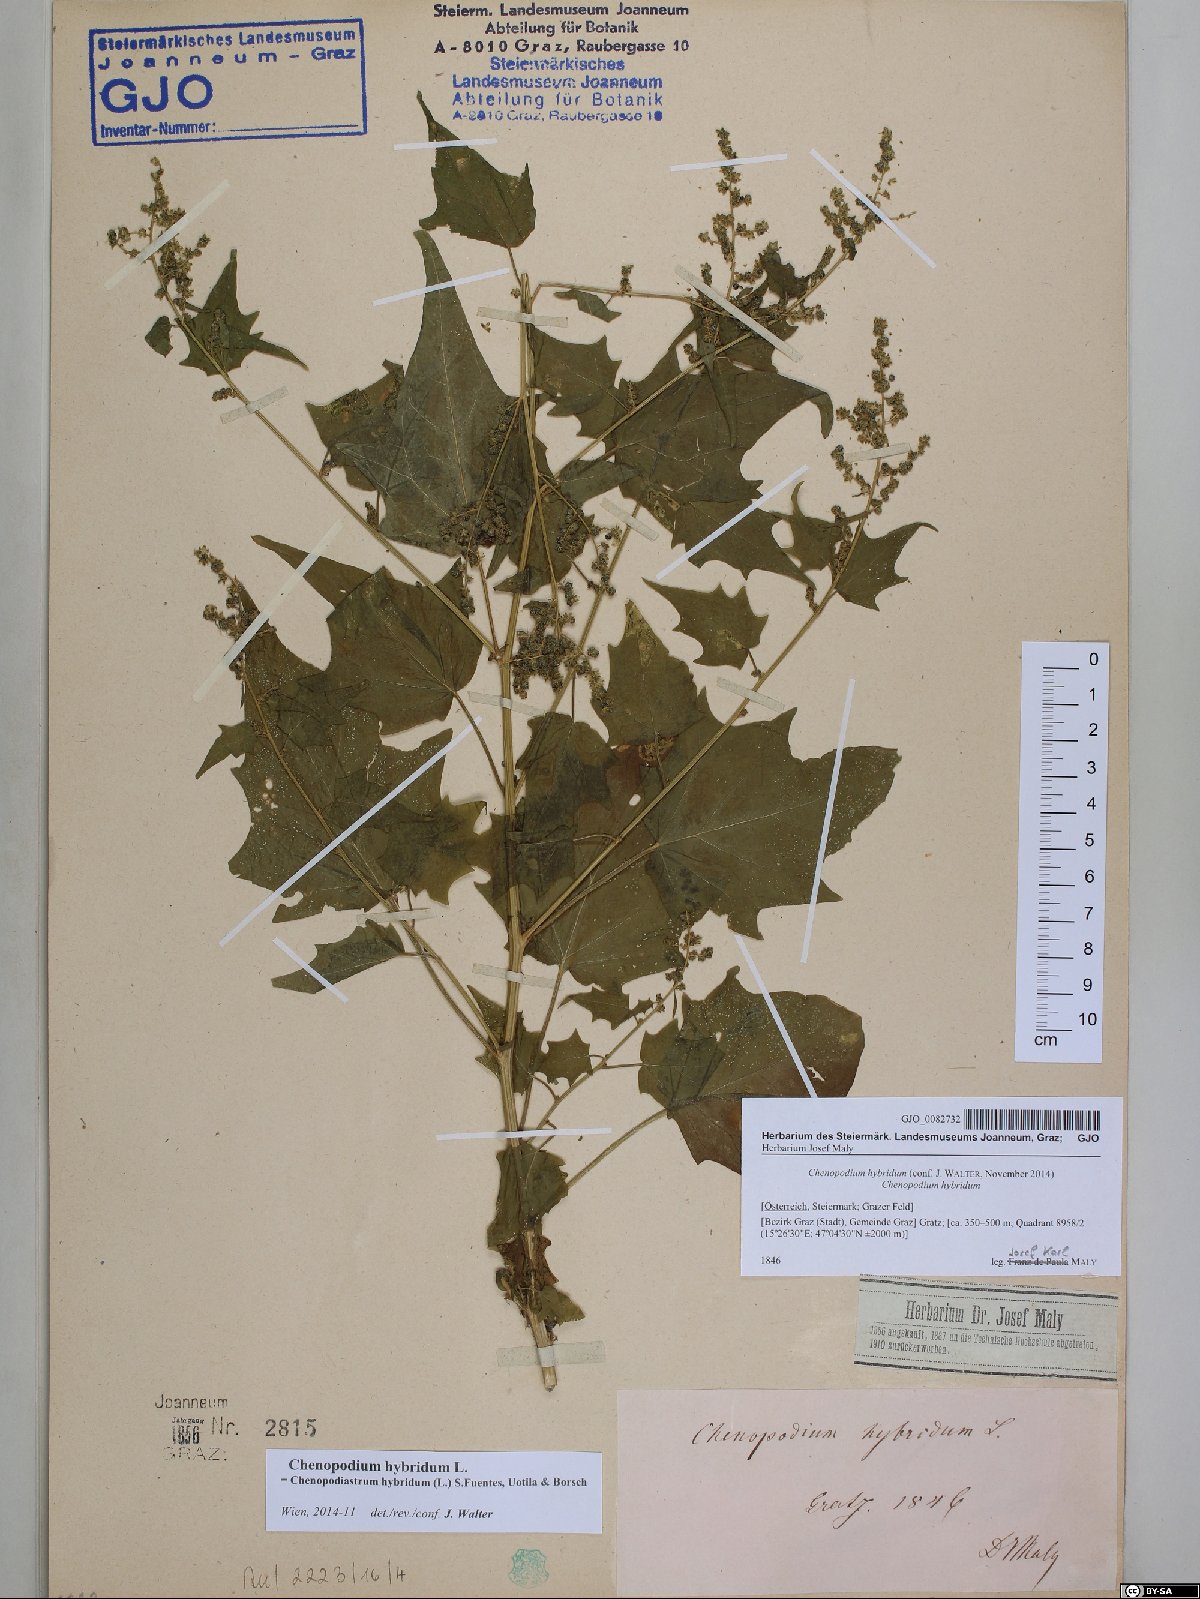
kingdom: Plantae
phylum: Tracheophyta
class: Magnoliopsida
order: Caryophyllales
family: Amaranthaceae
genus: Chenopodiastrum
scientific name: Chenopodiastrum hybridum
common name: Mapleleaf goosefoot
